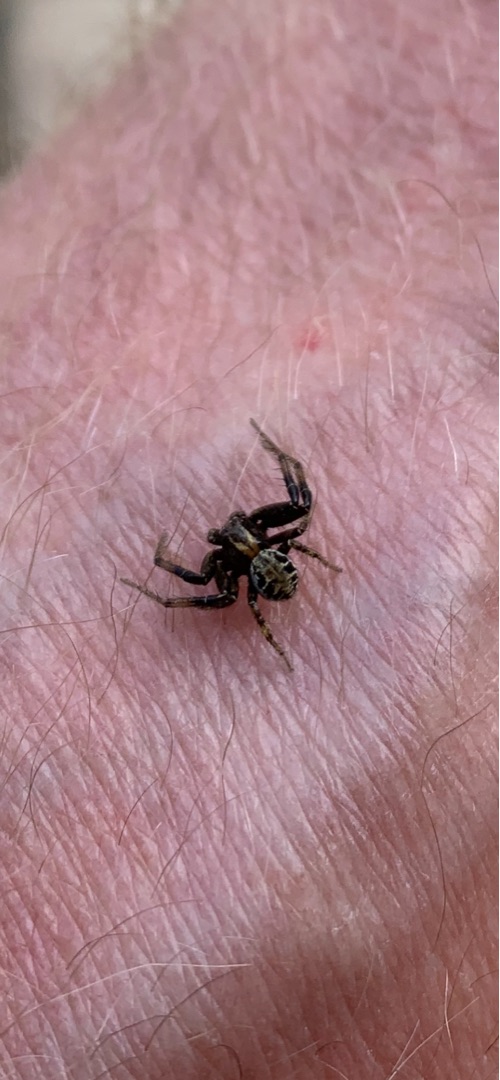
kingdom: Animalia
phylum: Arthropoda
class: Arachnida
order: Araneae
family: Thomisidae
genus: Xysticus
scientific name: Xysticus
